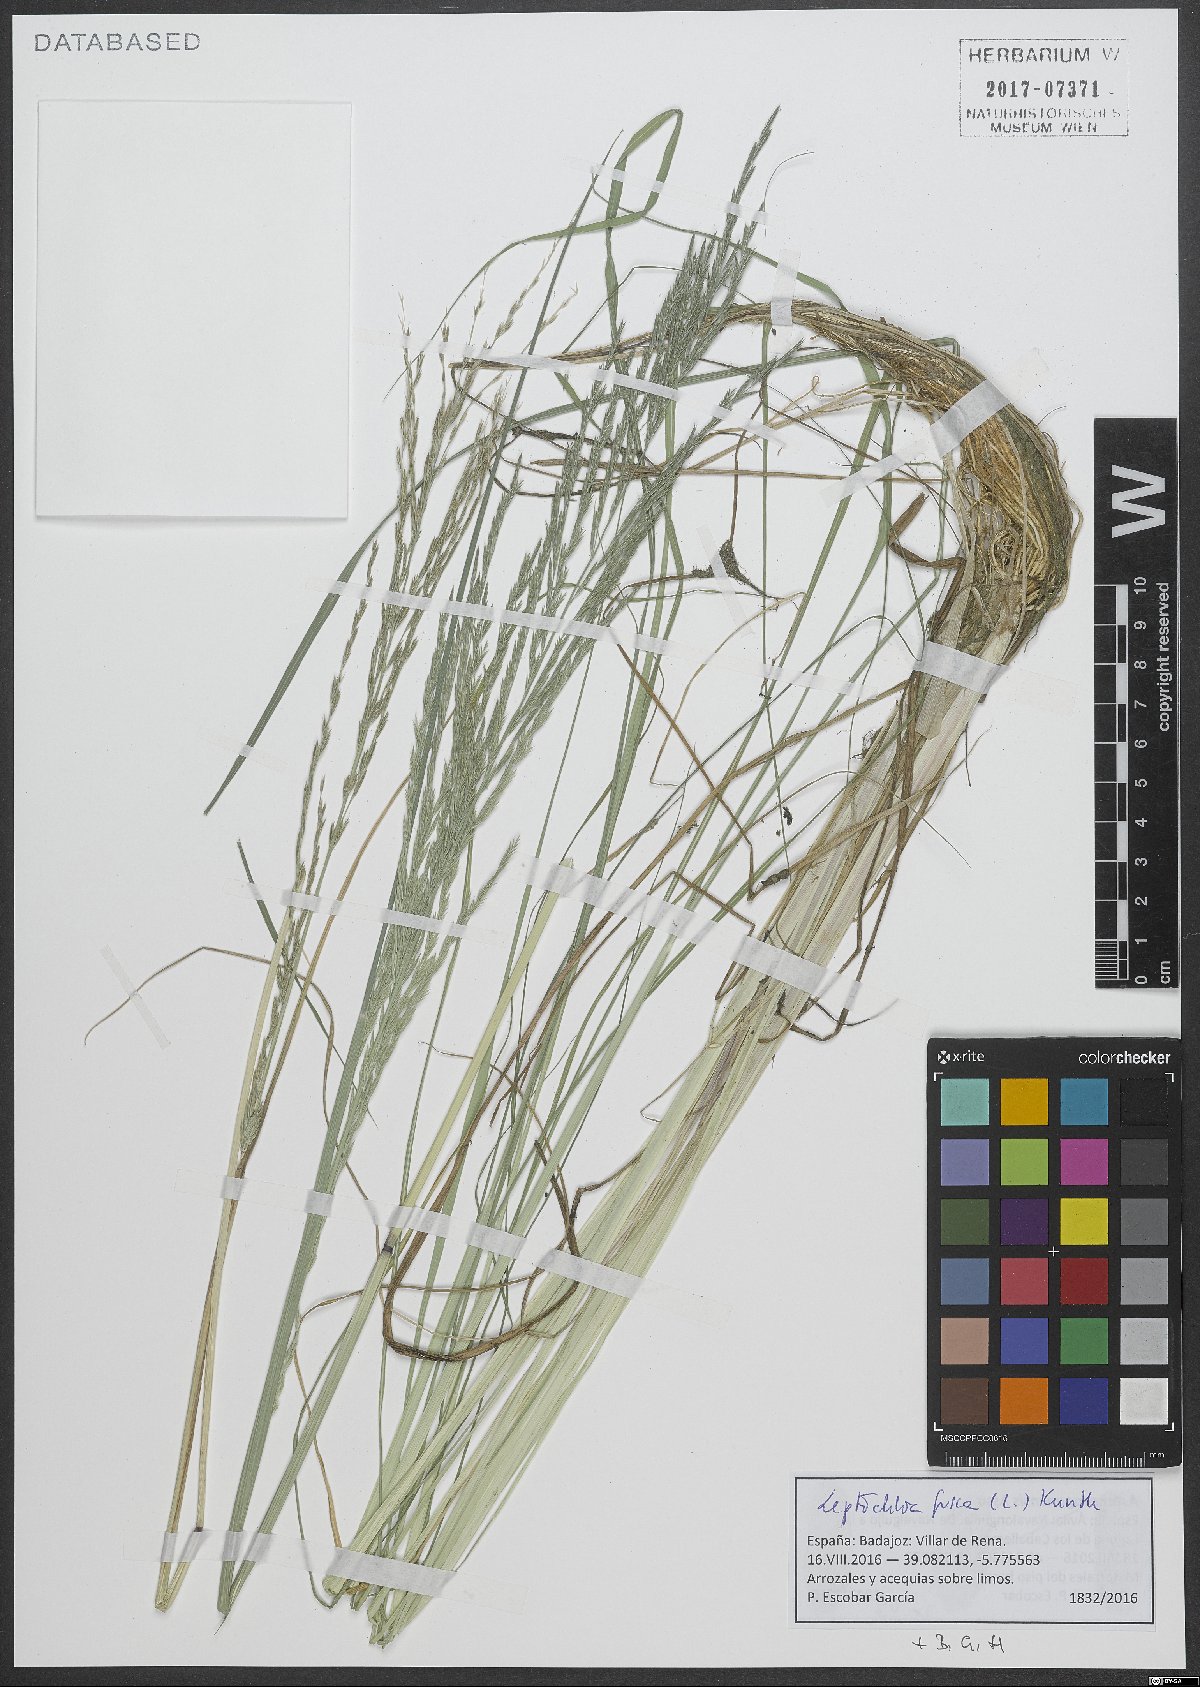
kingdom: Plantae
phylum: Tracheophyta
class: Liliopsida
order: Poales
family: Poaceae
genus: Diplachne
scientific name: Diplachne fusca
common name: Brown beetle grass
